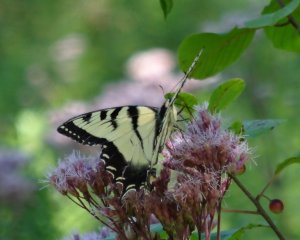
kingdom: Animalia
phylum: Arthropoda
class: Insecta
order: Lepidoptera
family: Papilionidae
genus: Pterourus
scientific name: Pterourus glaucus
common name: Eastern Tiger Swallowtail
